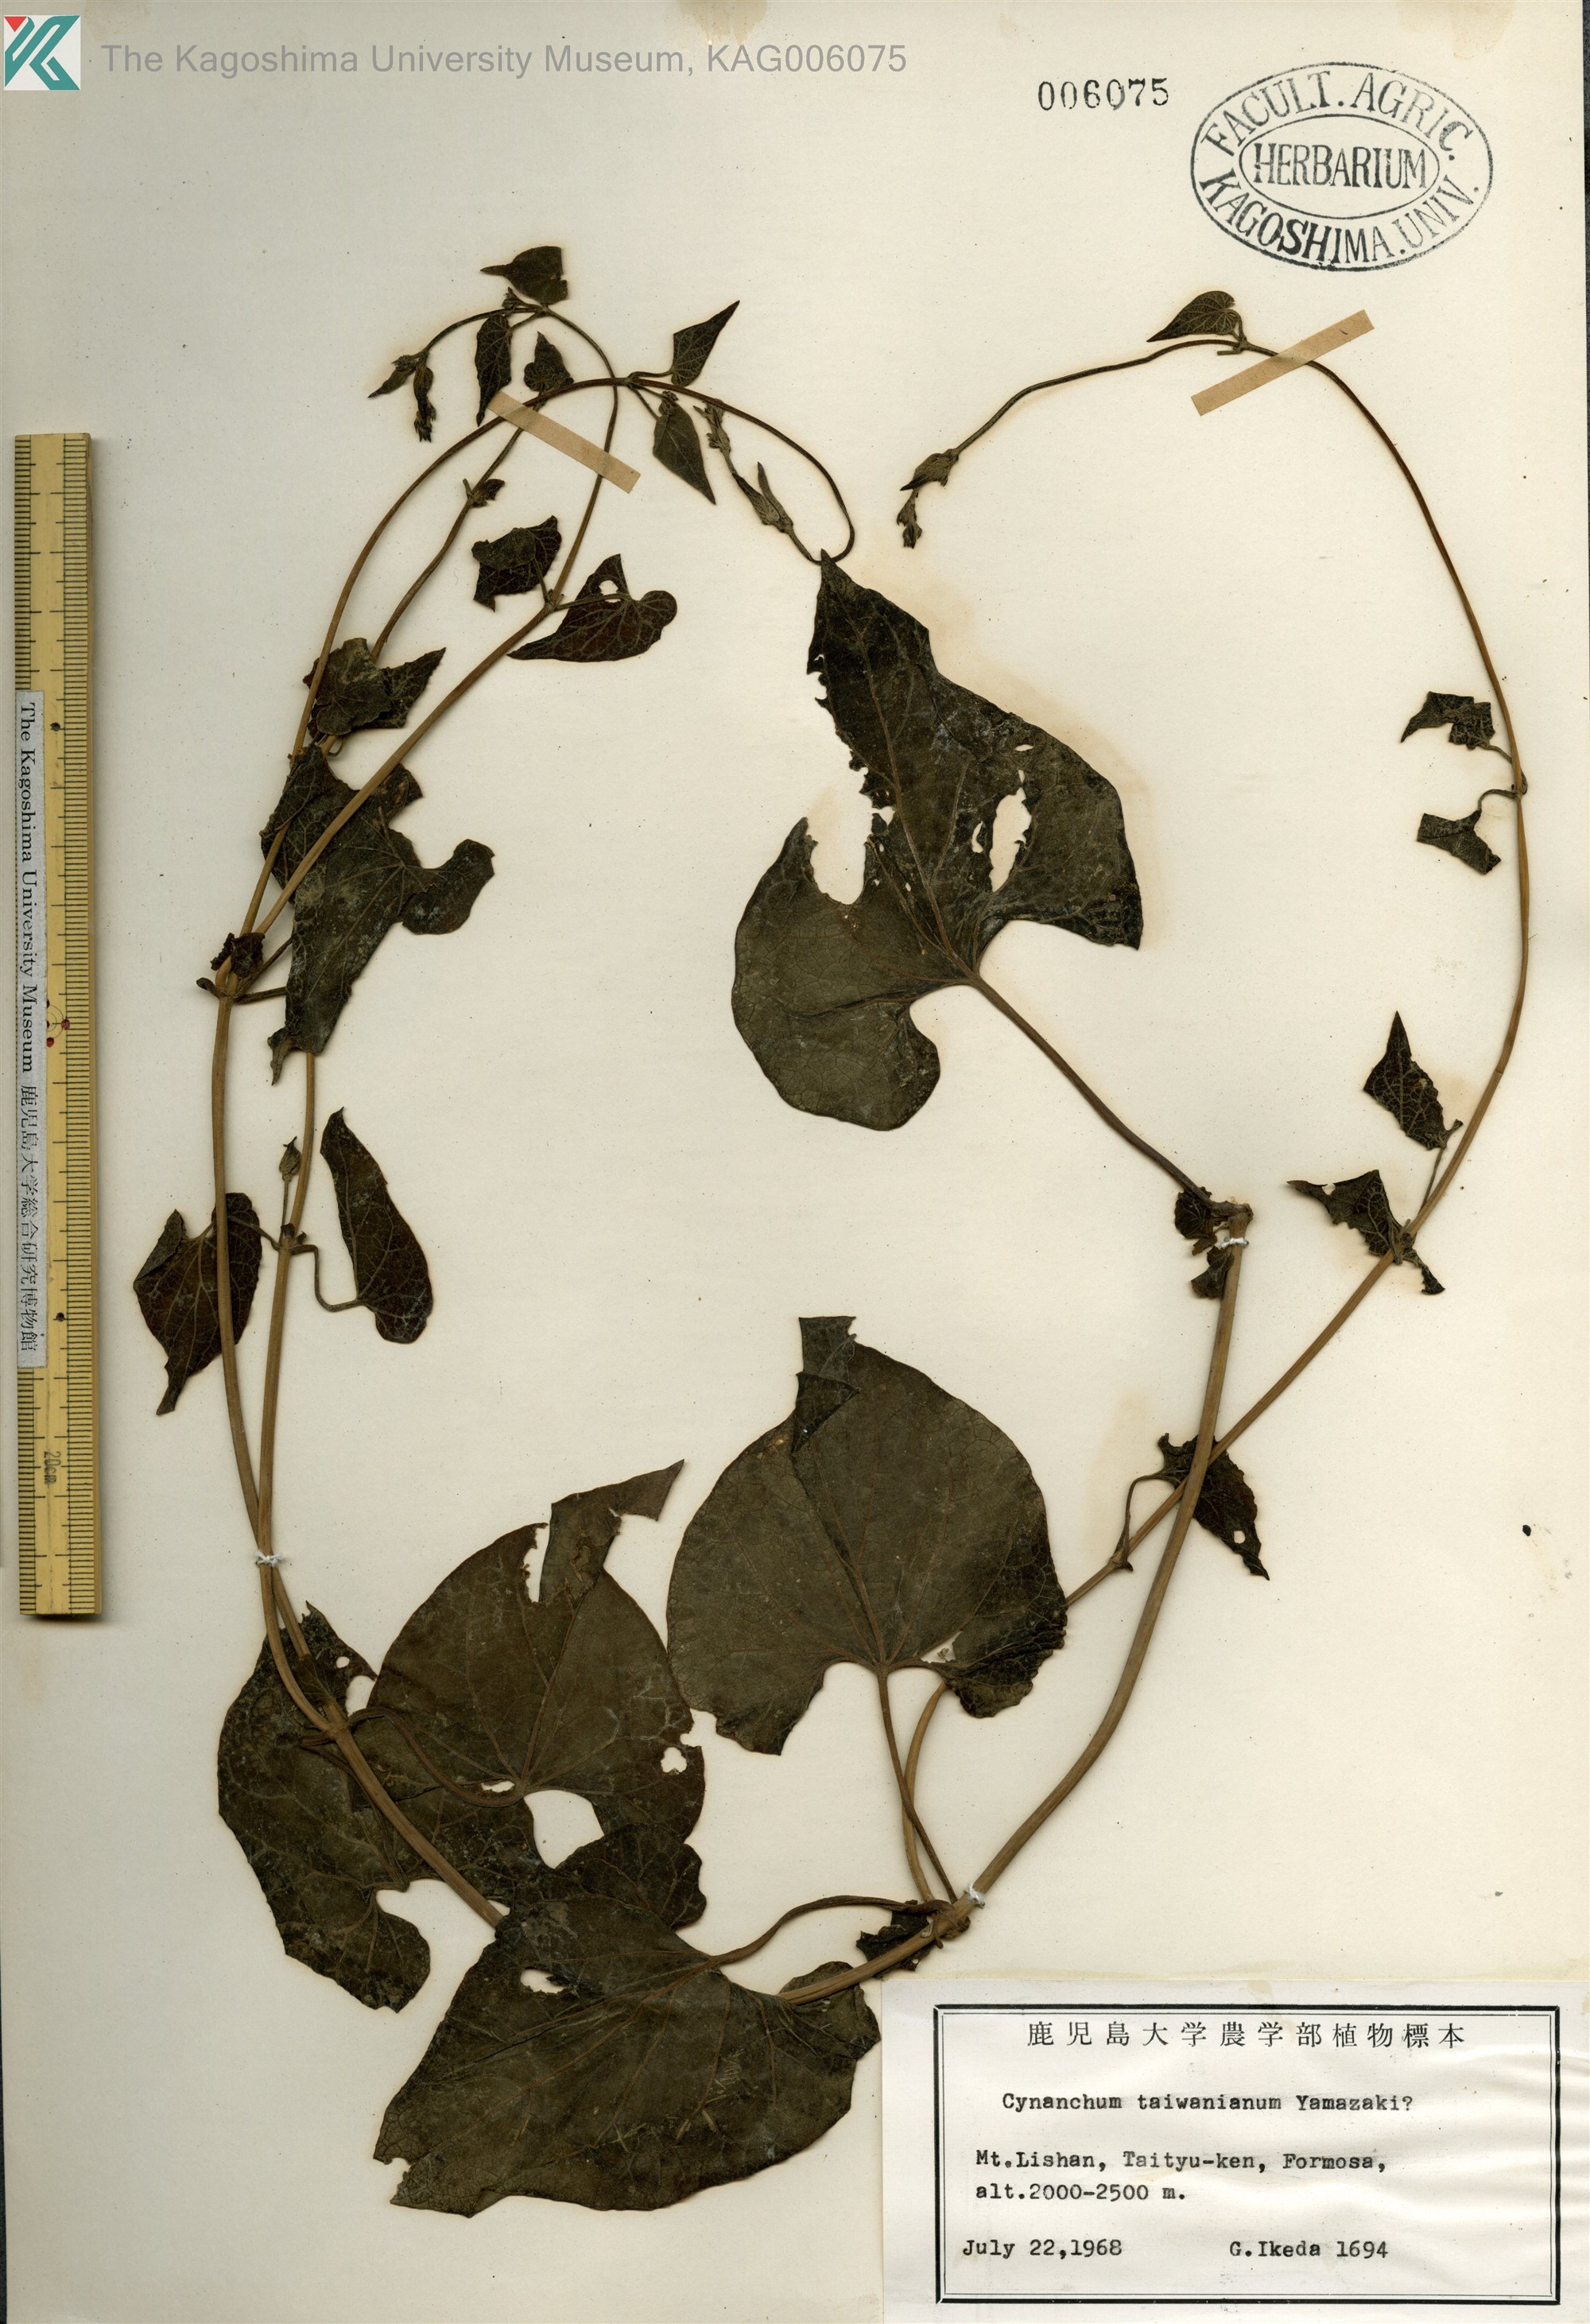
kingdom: Plantae
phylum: Tracheophyta
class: Magnoliopsida
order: Gentianales
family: Apocynaceae
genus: Cynanchum
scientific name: Cynanchum boudieri
